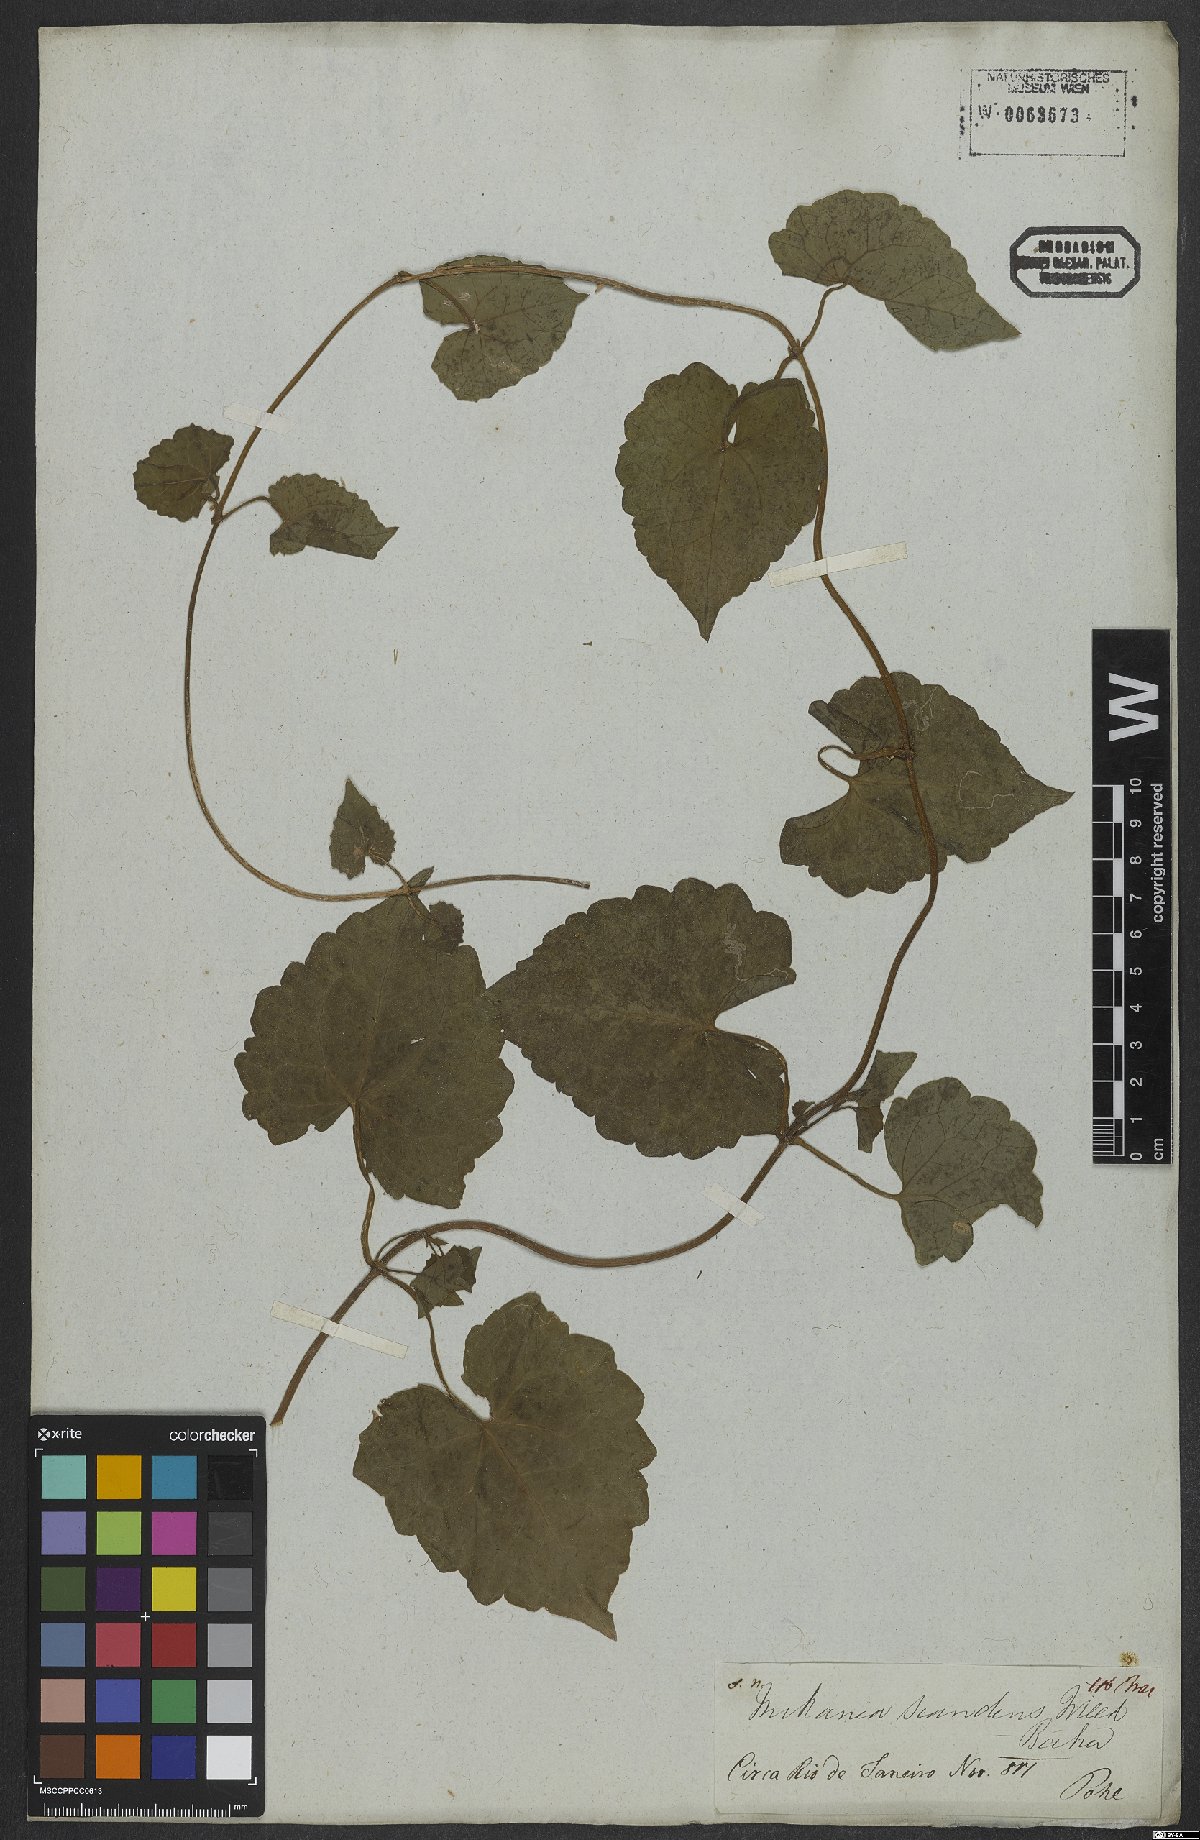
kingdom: Plantae
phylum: Tracheophyta
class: Magnoliopsida
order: Asterales
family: Asteraceae
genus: Mikania
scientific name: Mikania scandens
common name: Climbing hempvine
